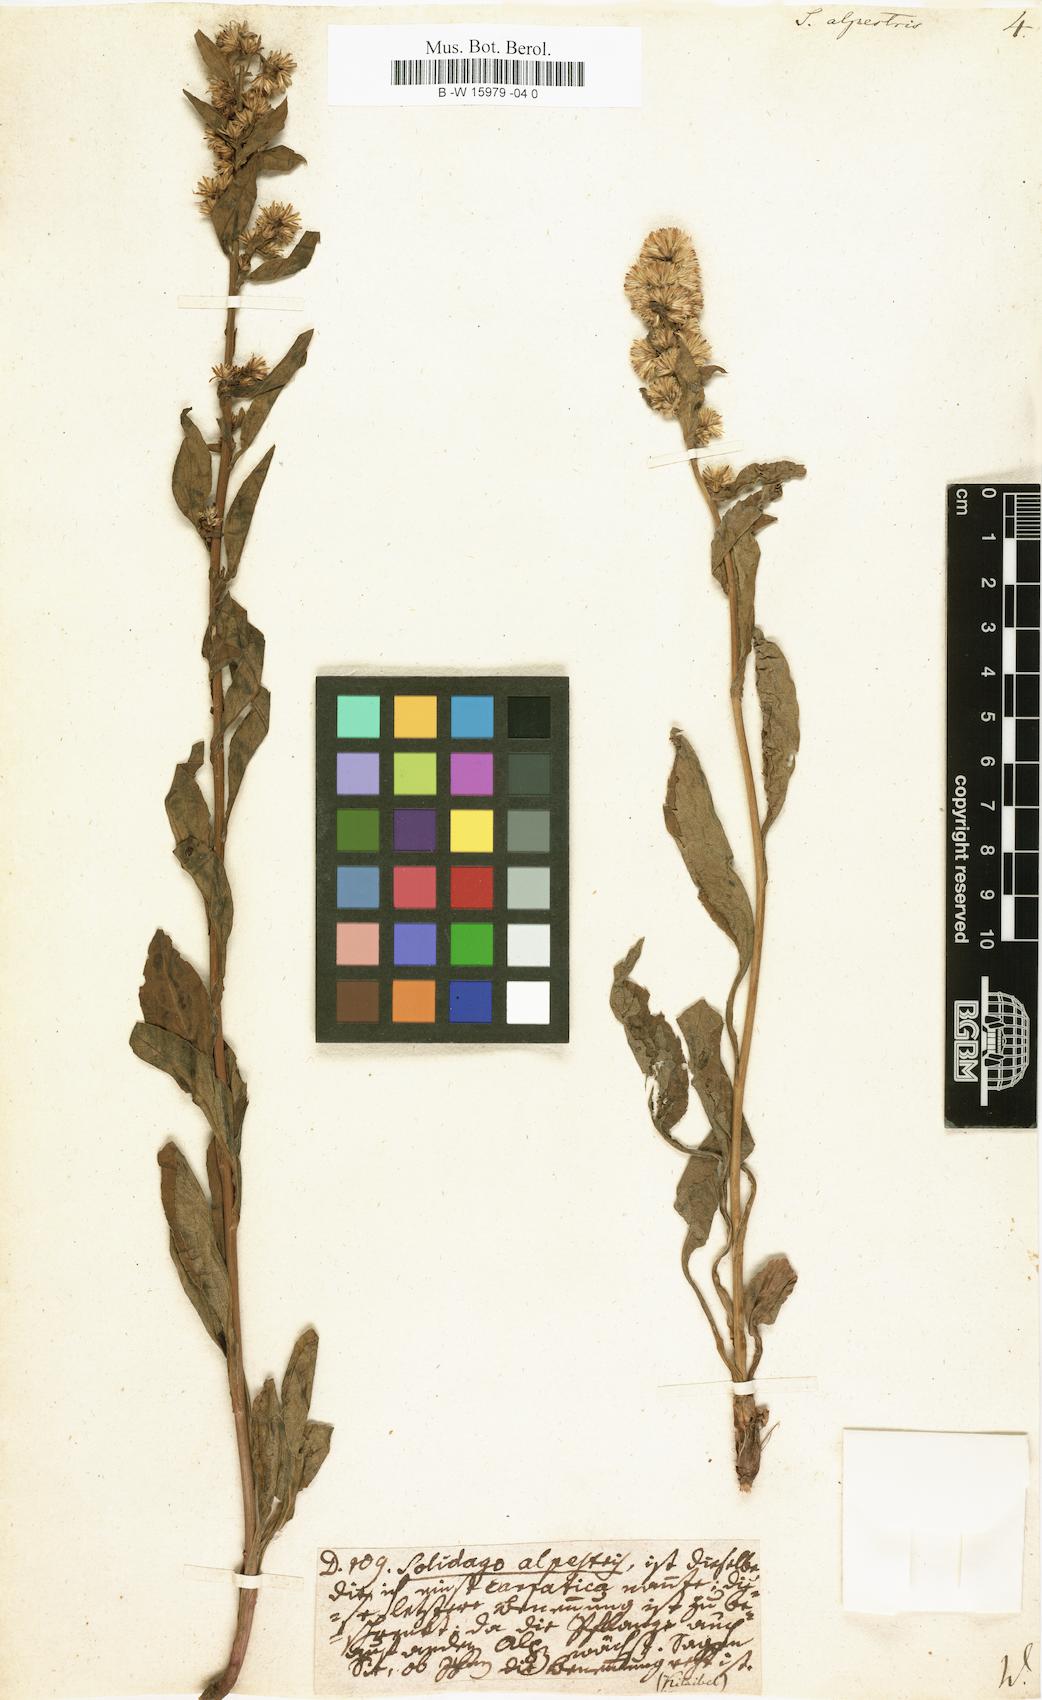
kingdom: Plantae
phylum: Tracheophyta
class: Magnoliopsida
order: Asterales
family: Asteraceae
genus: Solidago
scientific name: Solidago
